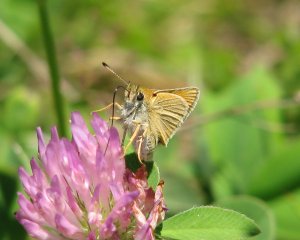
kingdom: Animalia
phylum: Arthropoda
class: Insecta
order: Lepidoptera
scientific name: Lepidoptera
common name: Butterflies
